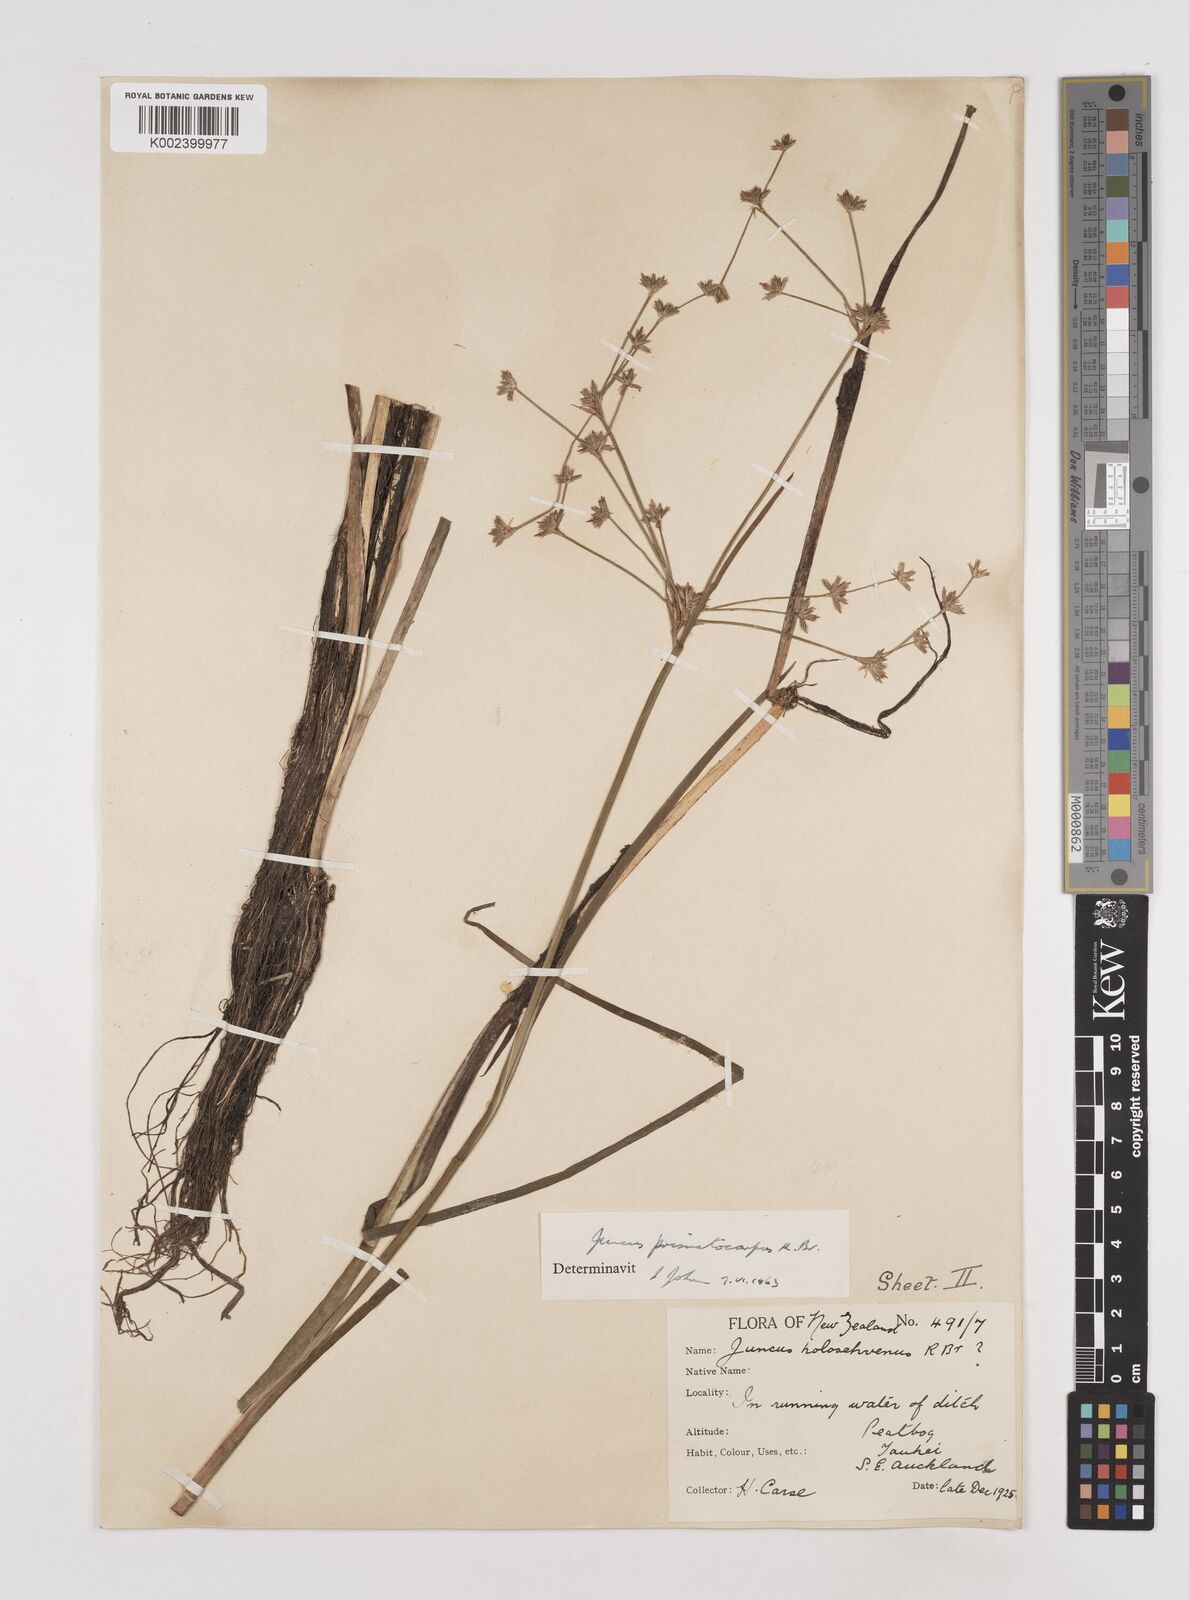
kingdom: Plantae
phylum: Tracheophyta
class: Liliopsida
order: Poales
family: Juncaceae
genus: Juncus
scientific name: Juncus prismatocarpus
